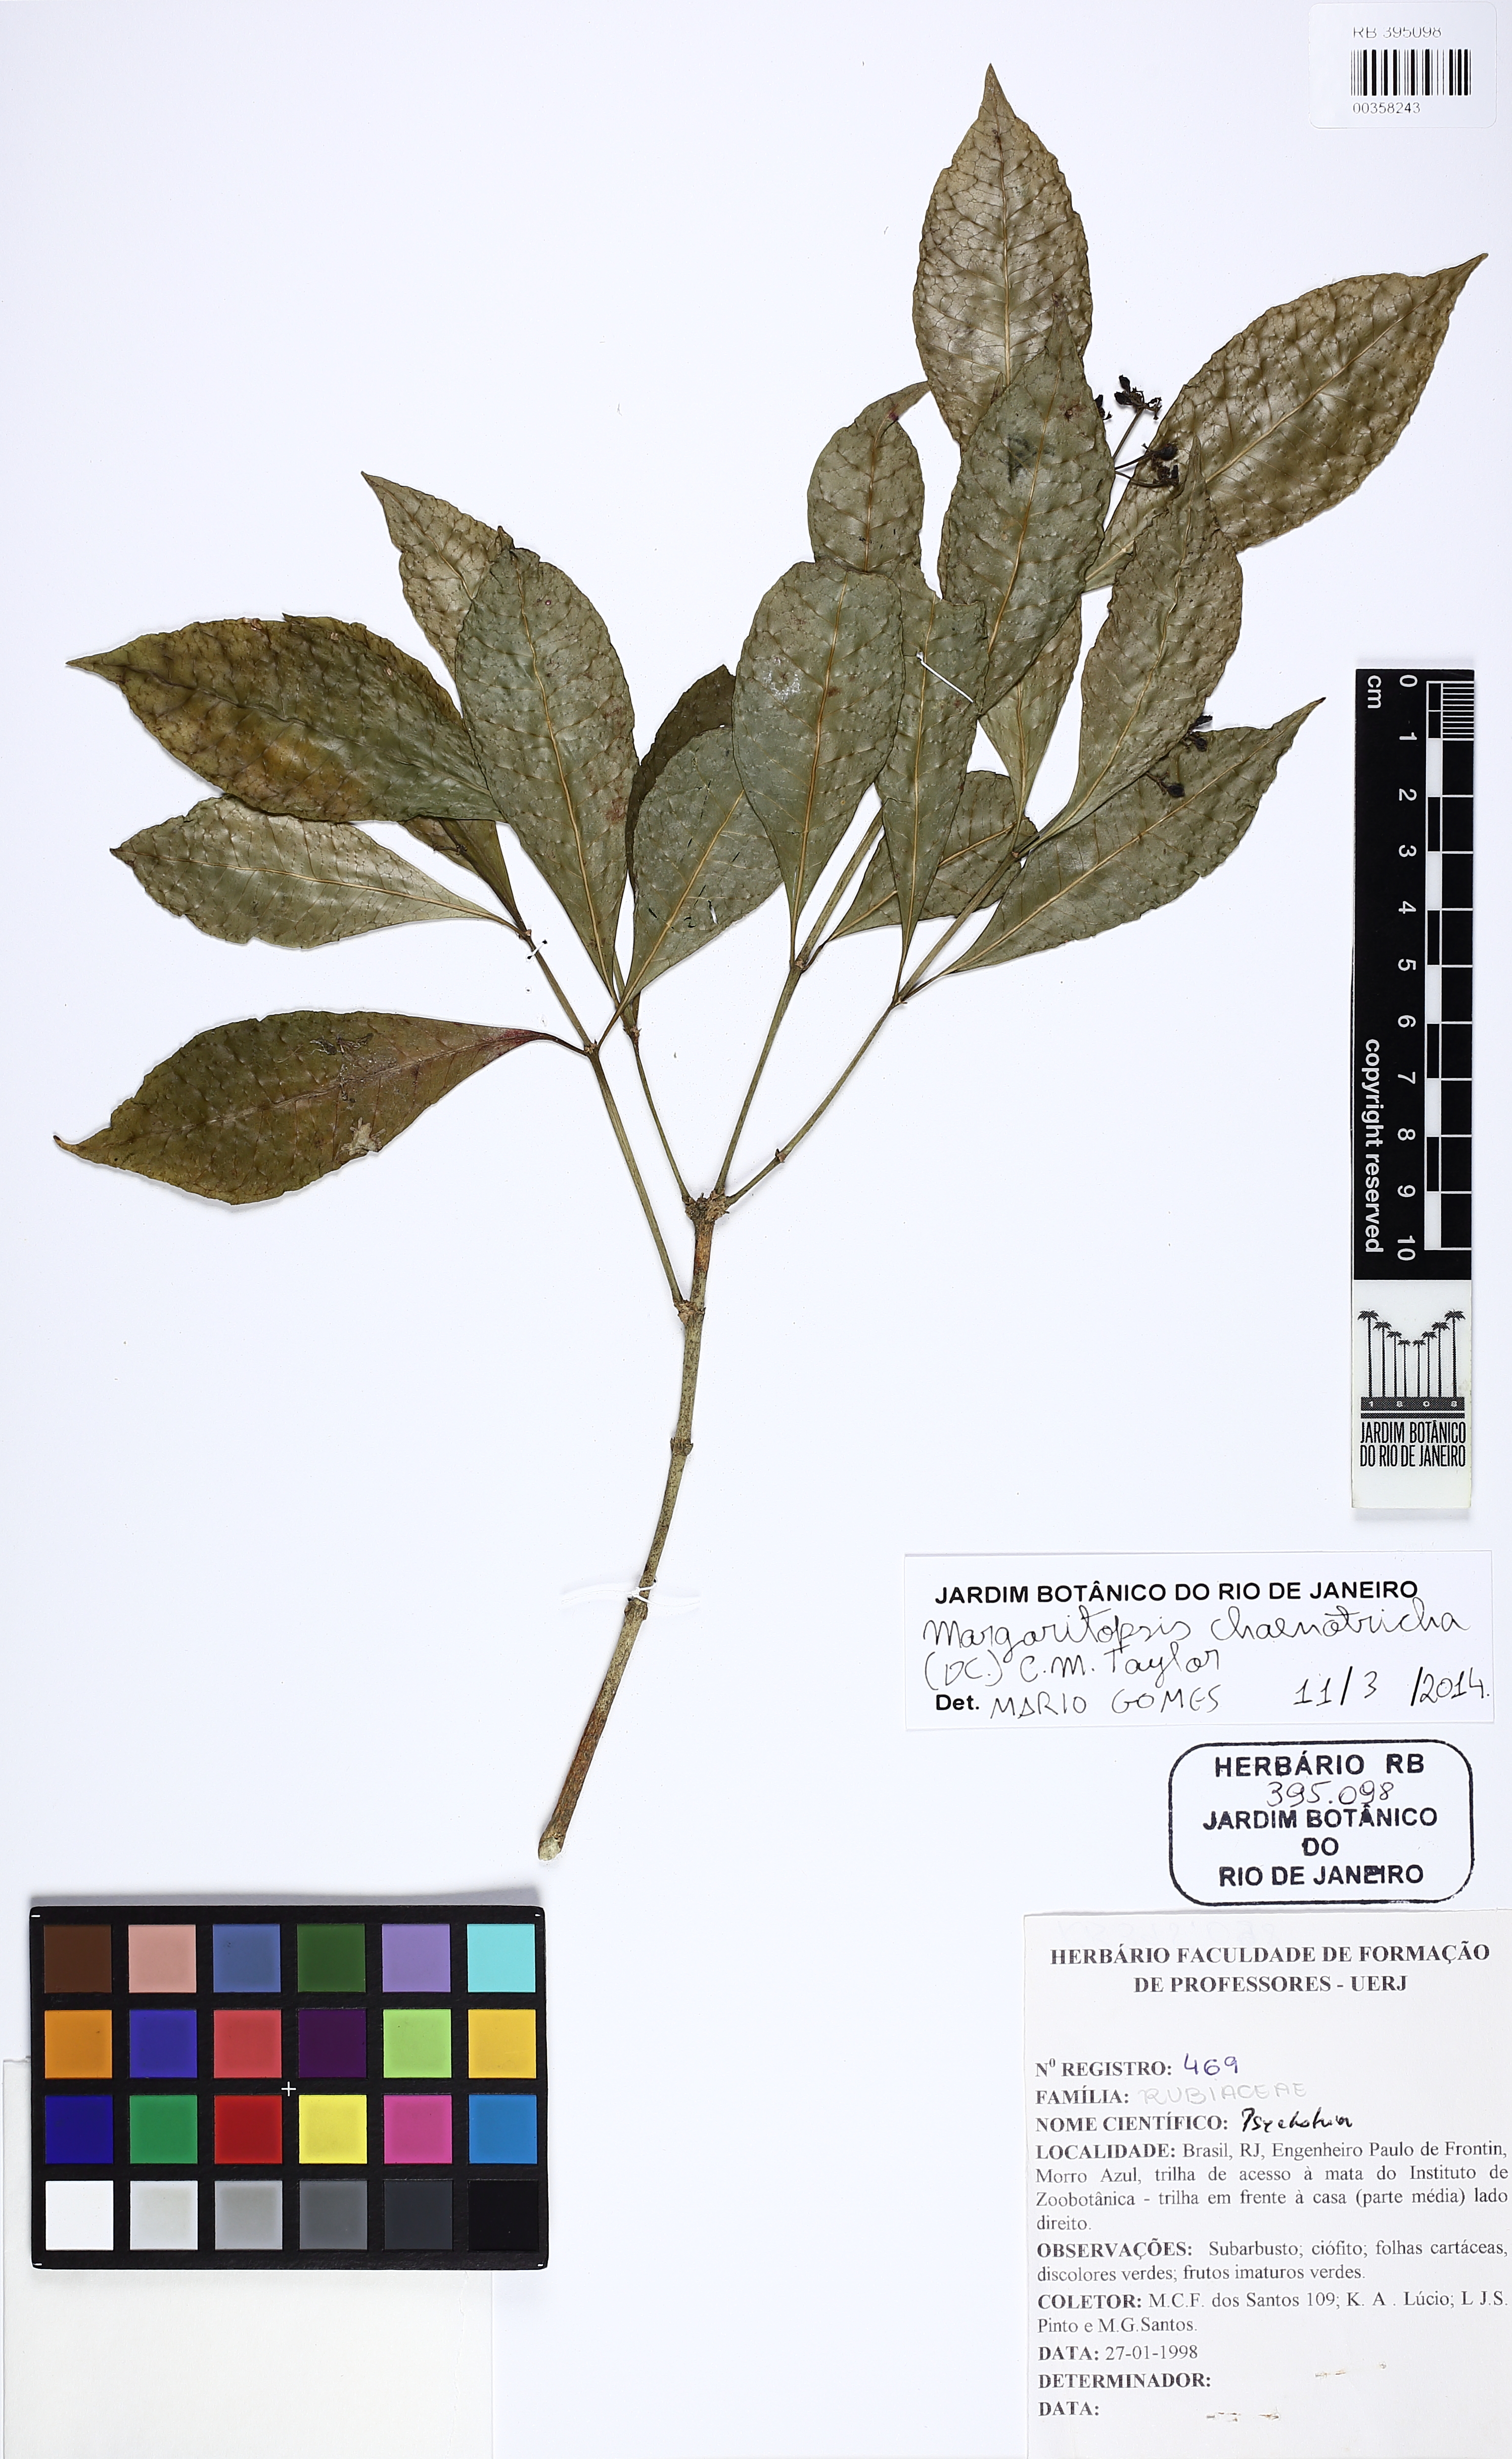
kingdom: Plantae
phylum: Tracheophyta
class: Magnoliopsida
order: Gentianales
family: Rubiaceae
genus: Eumachia
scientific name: Eumachia chaenotricha
